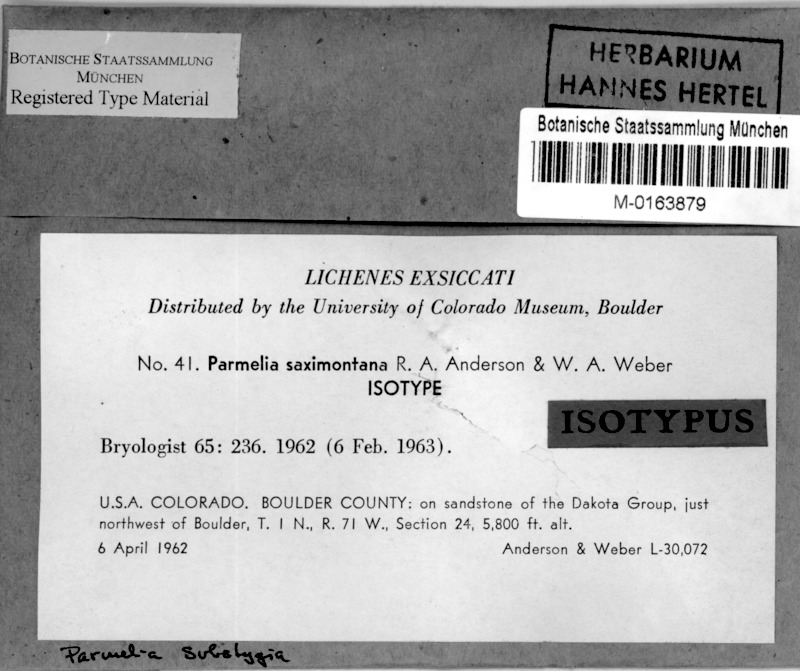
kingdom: Fungi
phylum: Ascomycota
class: Lecanoromycetes
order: Lecanorales
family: Parmeliaceae
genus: Montanelia
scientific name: Montanelia tominii
